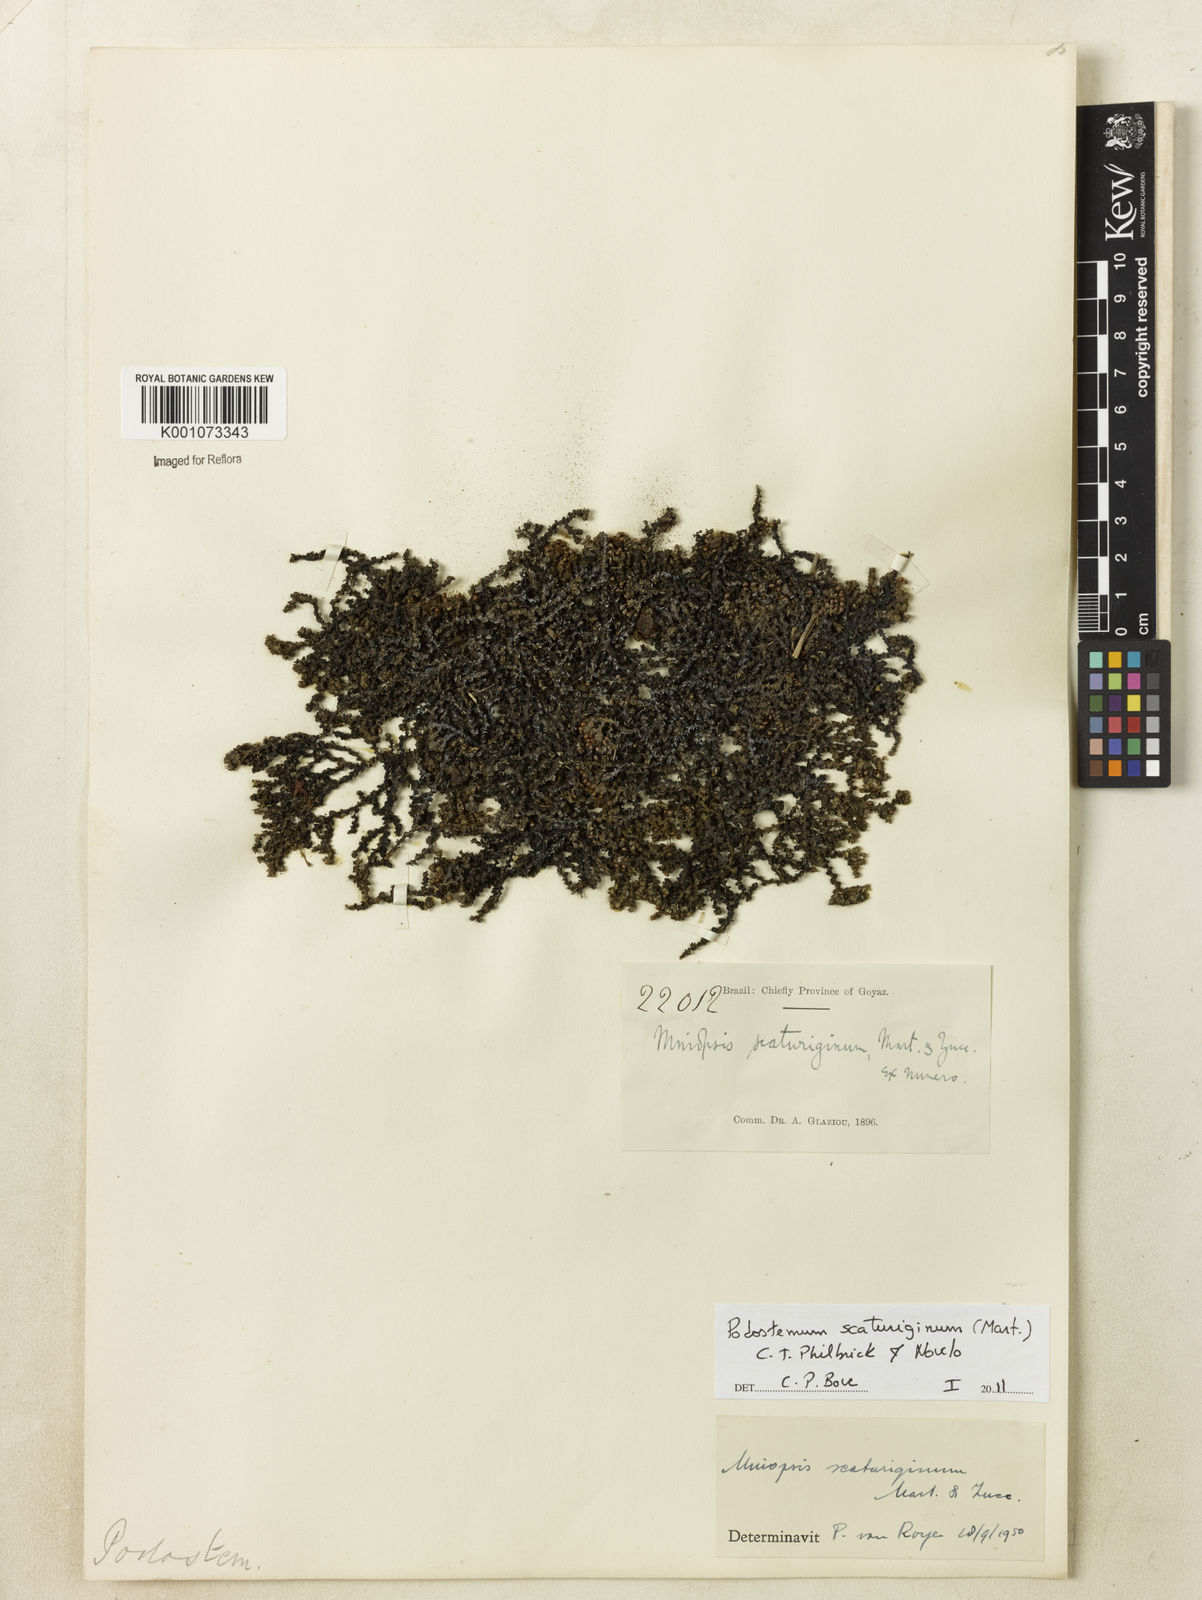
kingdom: Plantae
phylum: Tracheophyta
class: Magnoliopsida
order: Malpighiales
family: Podostemaceae
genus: Podostemum
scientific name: Podostemum scaturiginum
